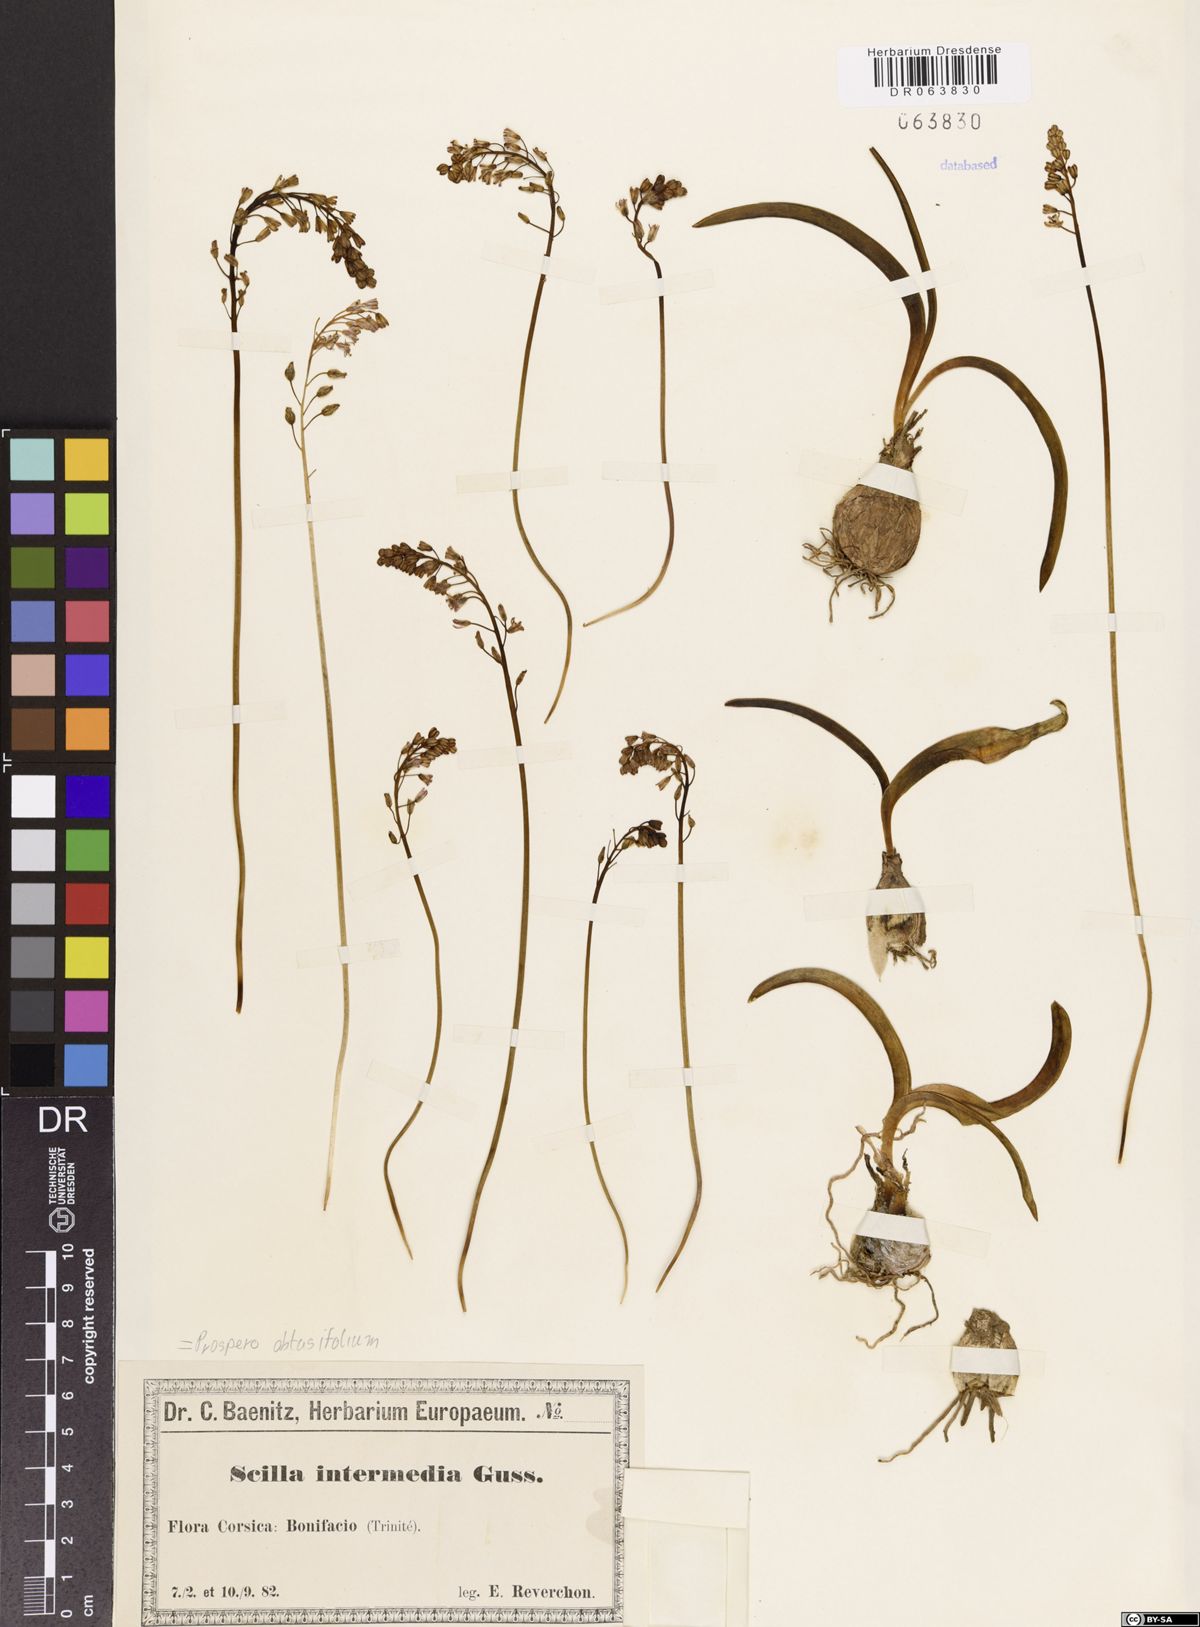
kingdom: Plantae
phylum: Tracheophyta
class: Liliopsida
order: Asparagales
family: Asparagaceae
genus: Prospero
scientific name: Prospero obtusifolium
